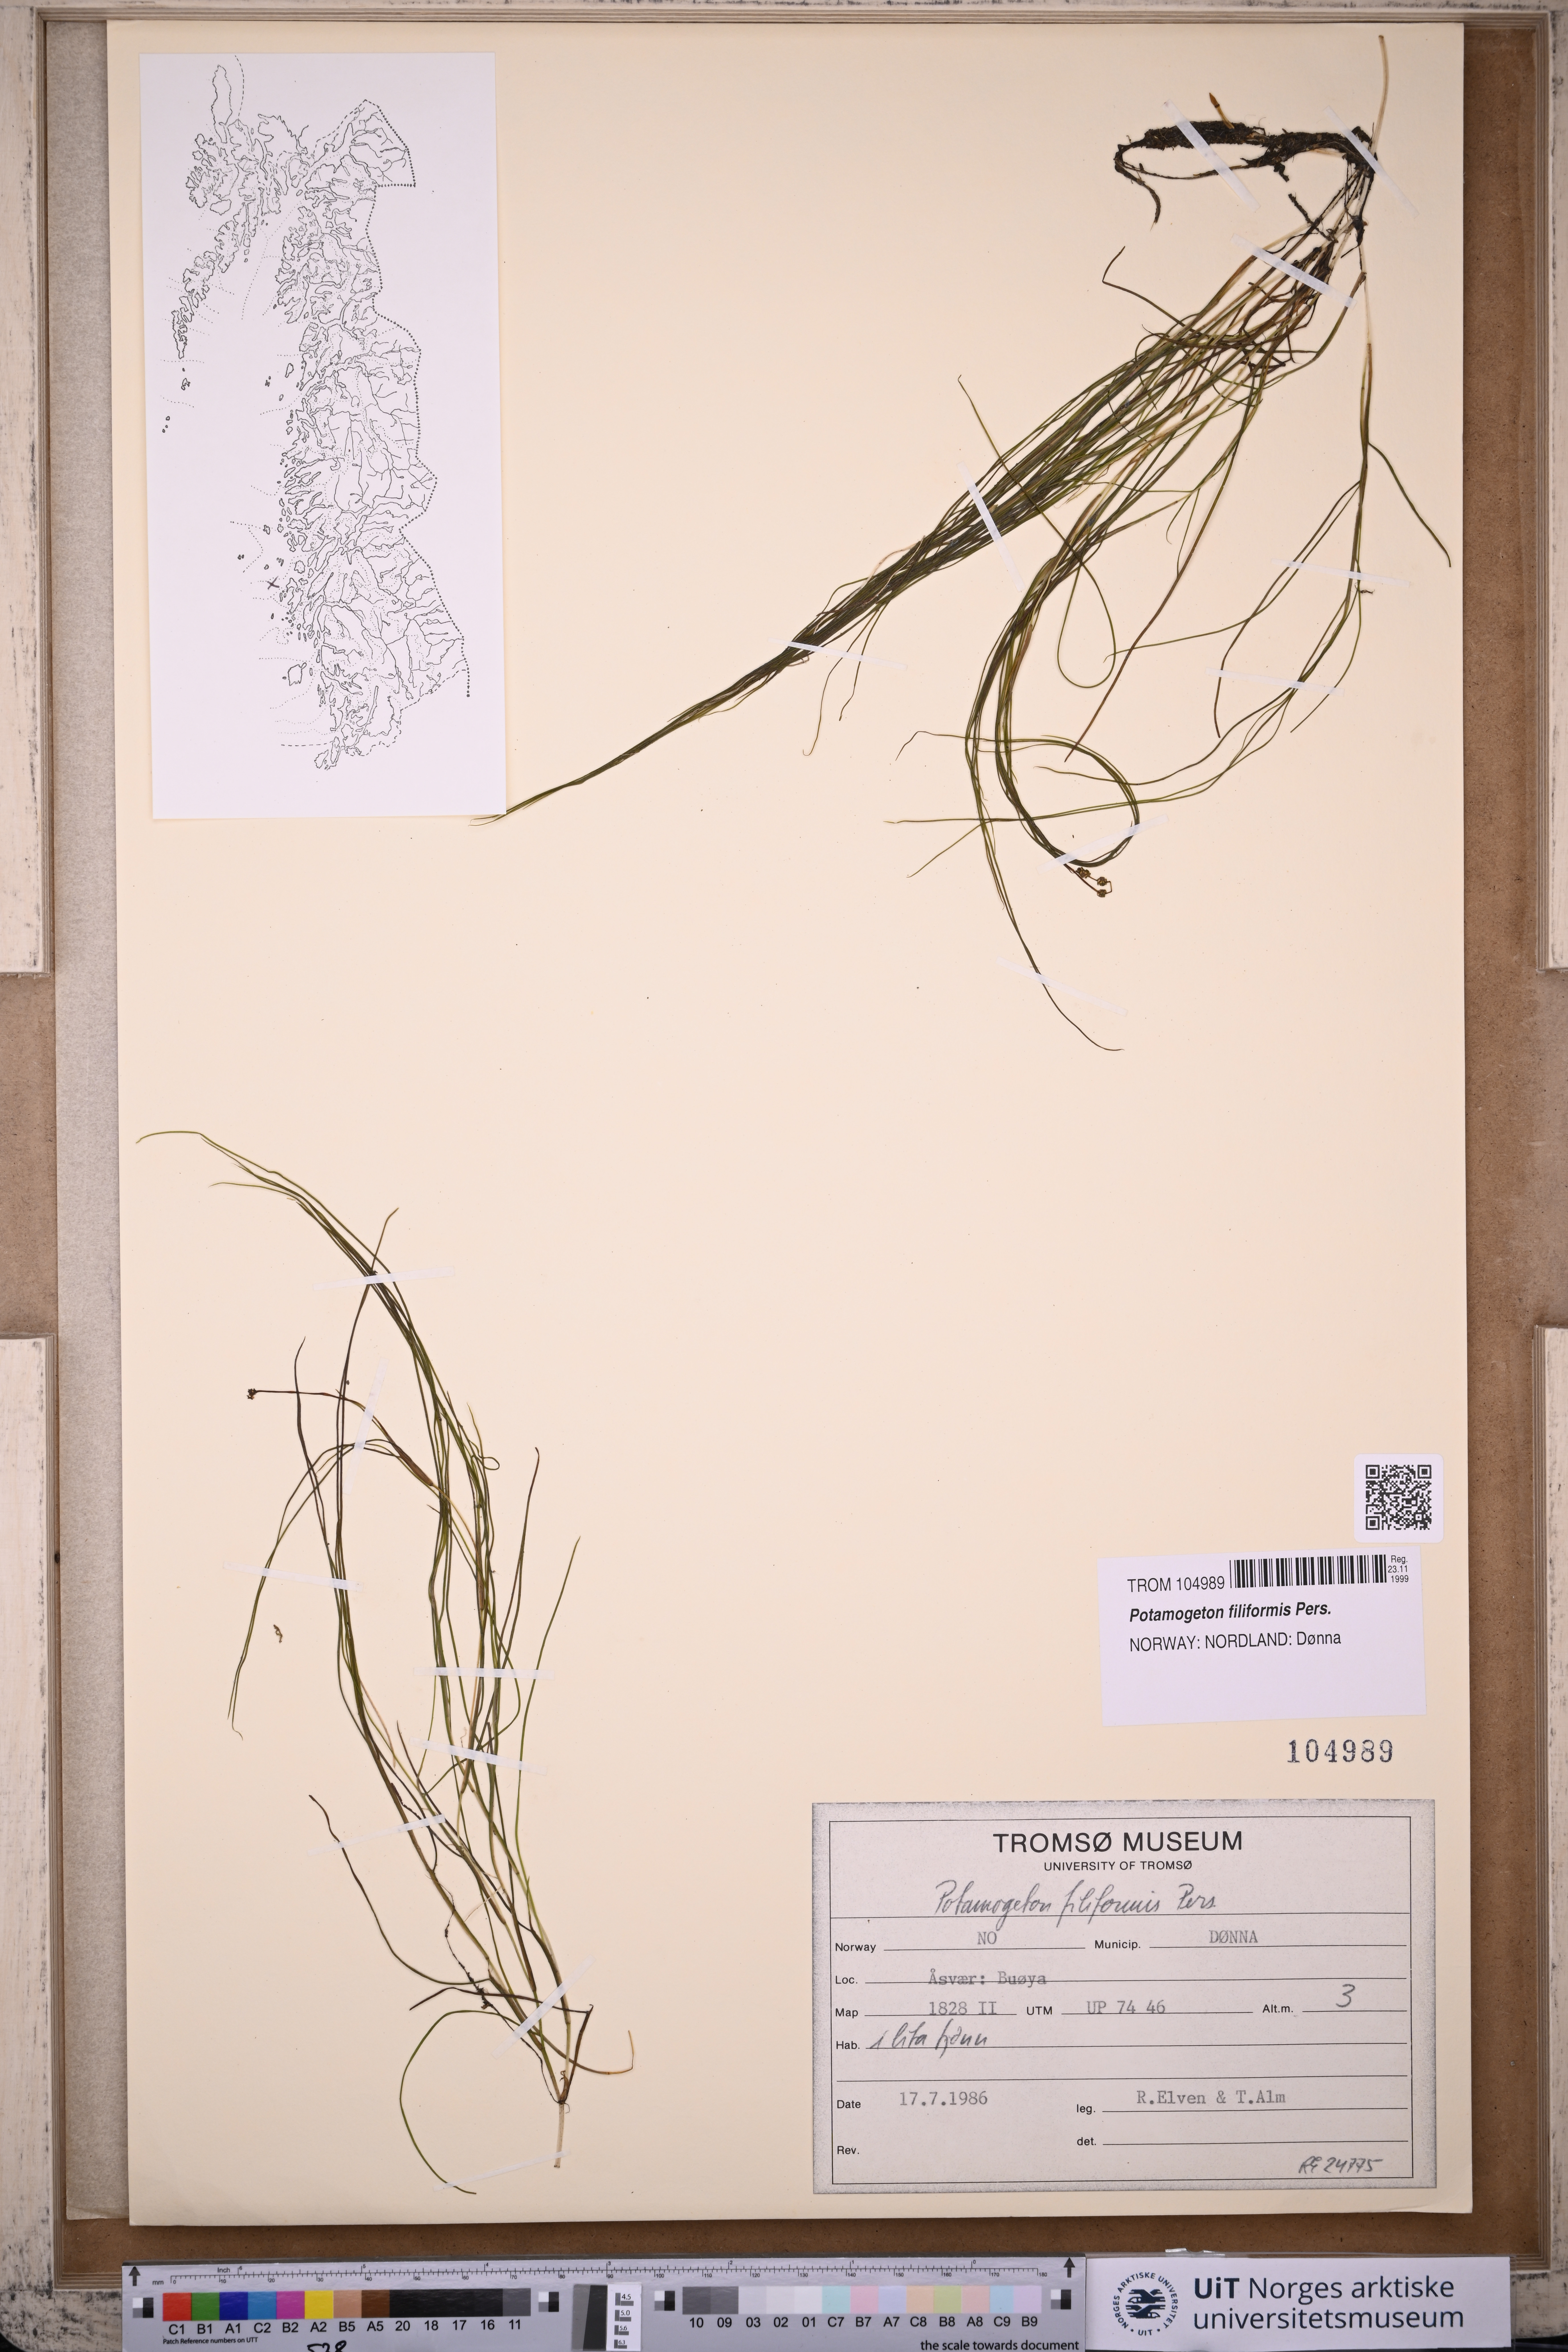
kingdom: Plantae
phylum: Tracheophyta
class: Liliopsida
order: Alismatales
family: Potamogetonaceae
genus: Stuckenia
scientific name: Stuckenia filiformis
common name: Alpine thread-leaved pondweed
